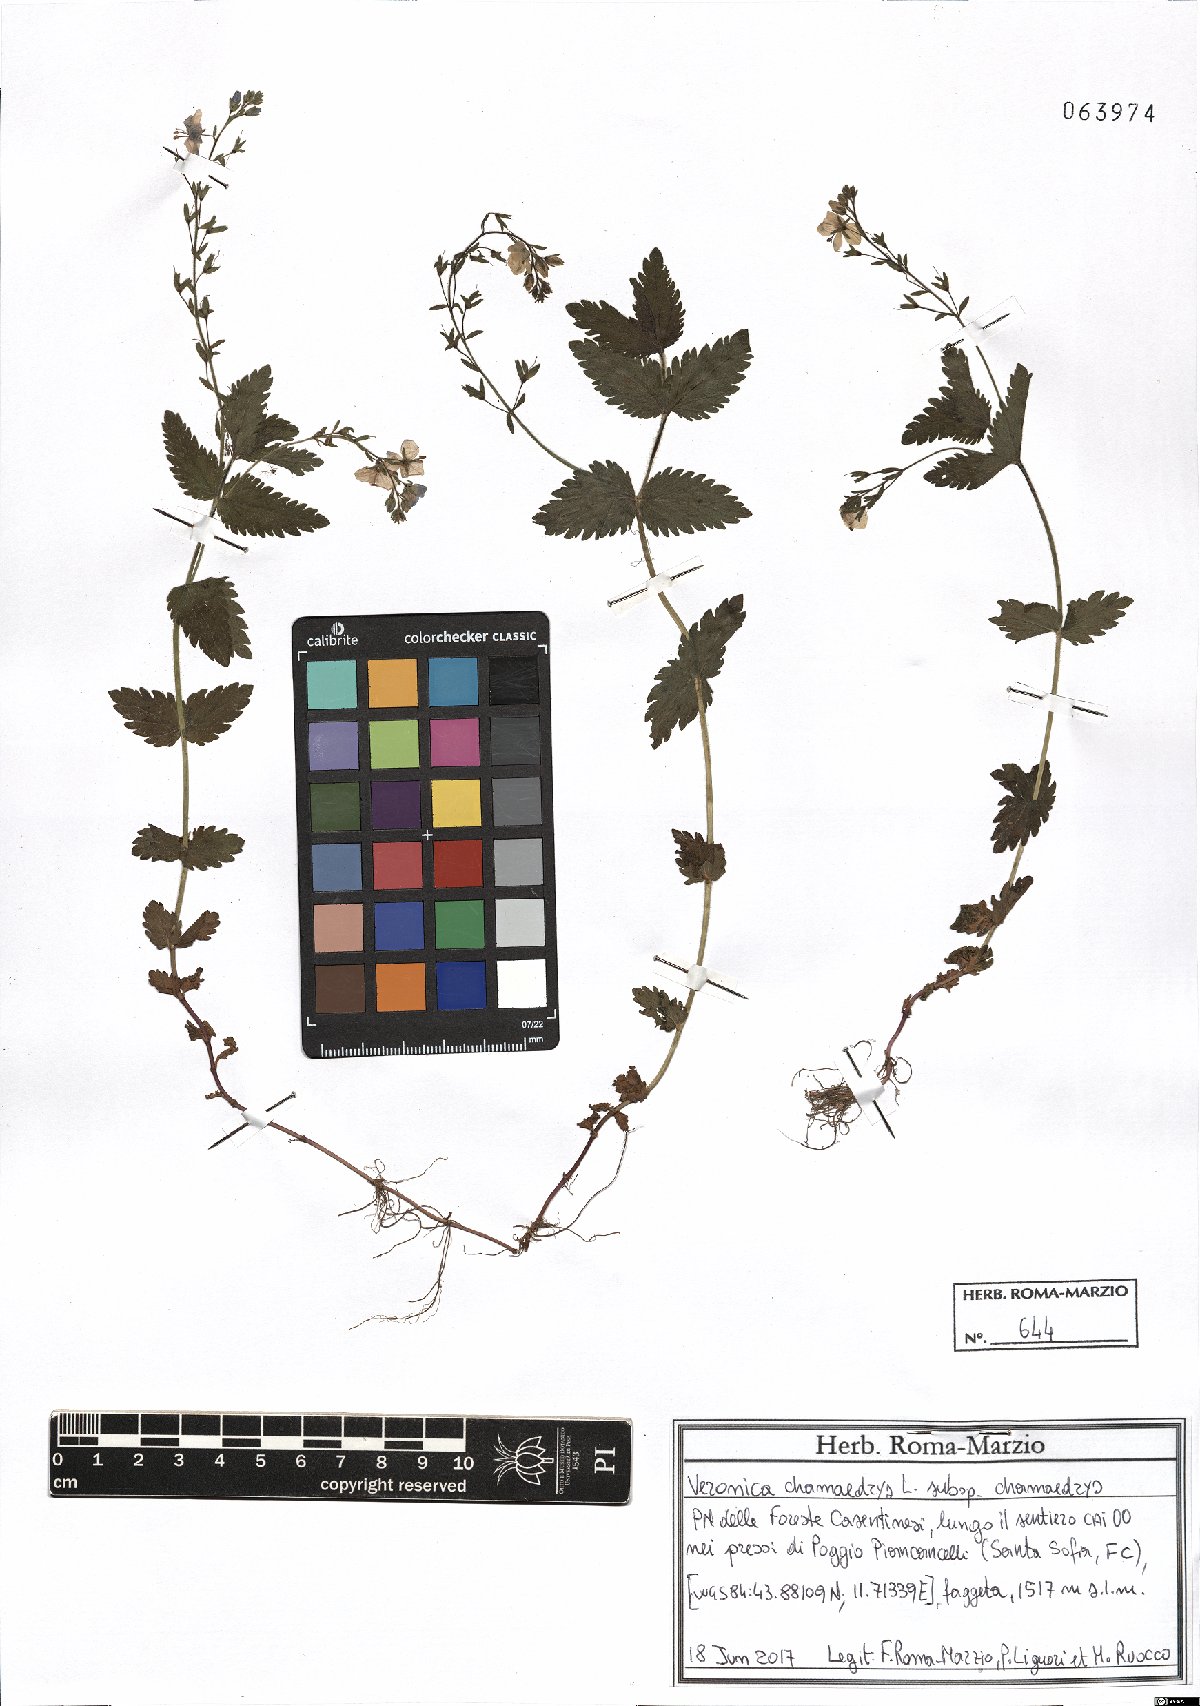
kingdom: Plantae
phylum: Tracheophyta
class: Magnoliopsida
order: Lamiales
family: Plantaginaceae
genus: Veronica
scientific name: Veronica chamaedrys
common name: Germander speedwell
